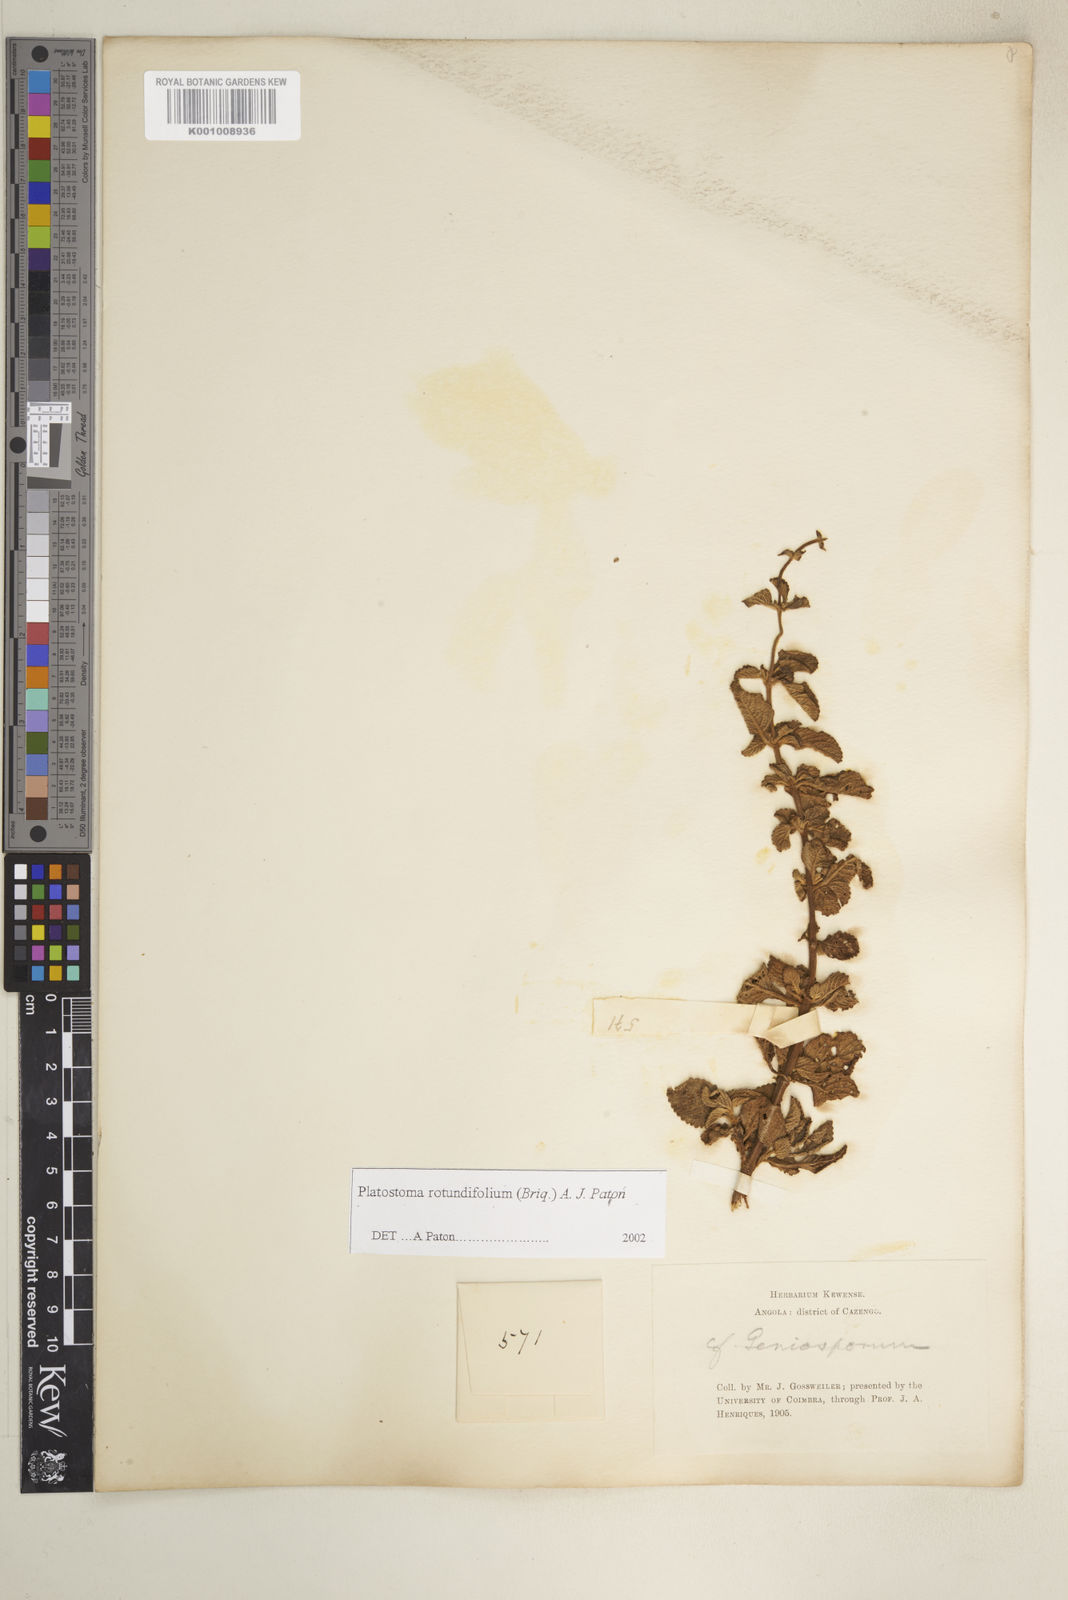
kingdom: Plantae
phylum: Tracheophyta
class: Magnoliopsida
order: Lamiales
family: Lamiaceae
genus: Platostoma
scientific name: Platostoma rotundifolium
